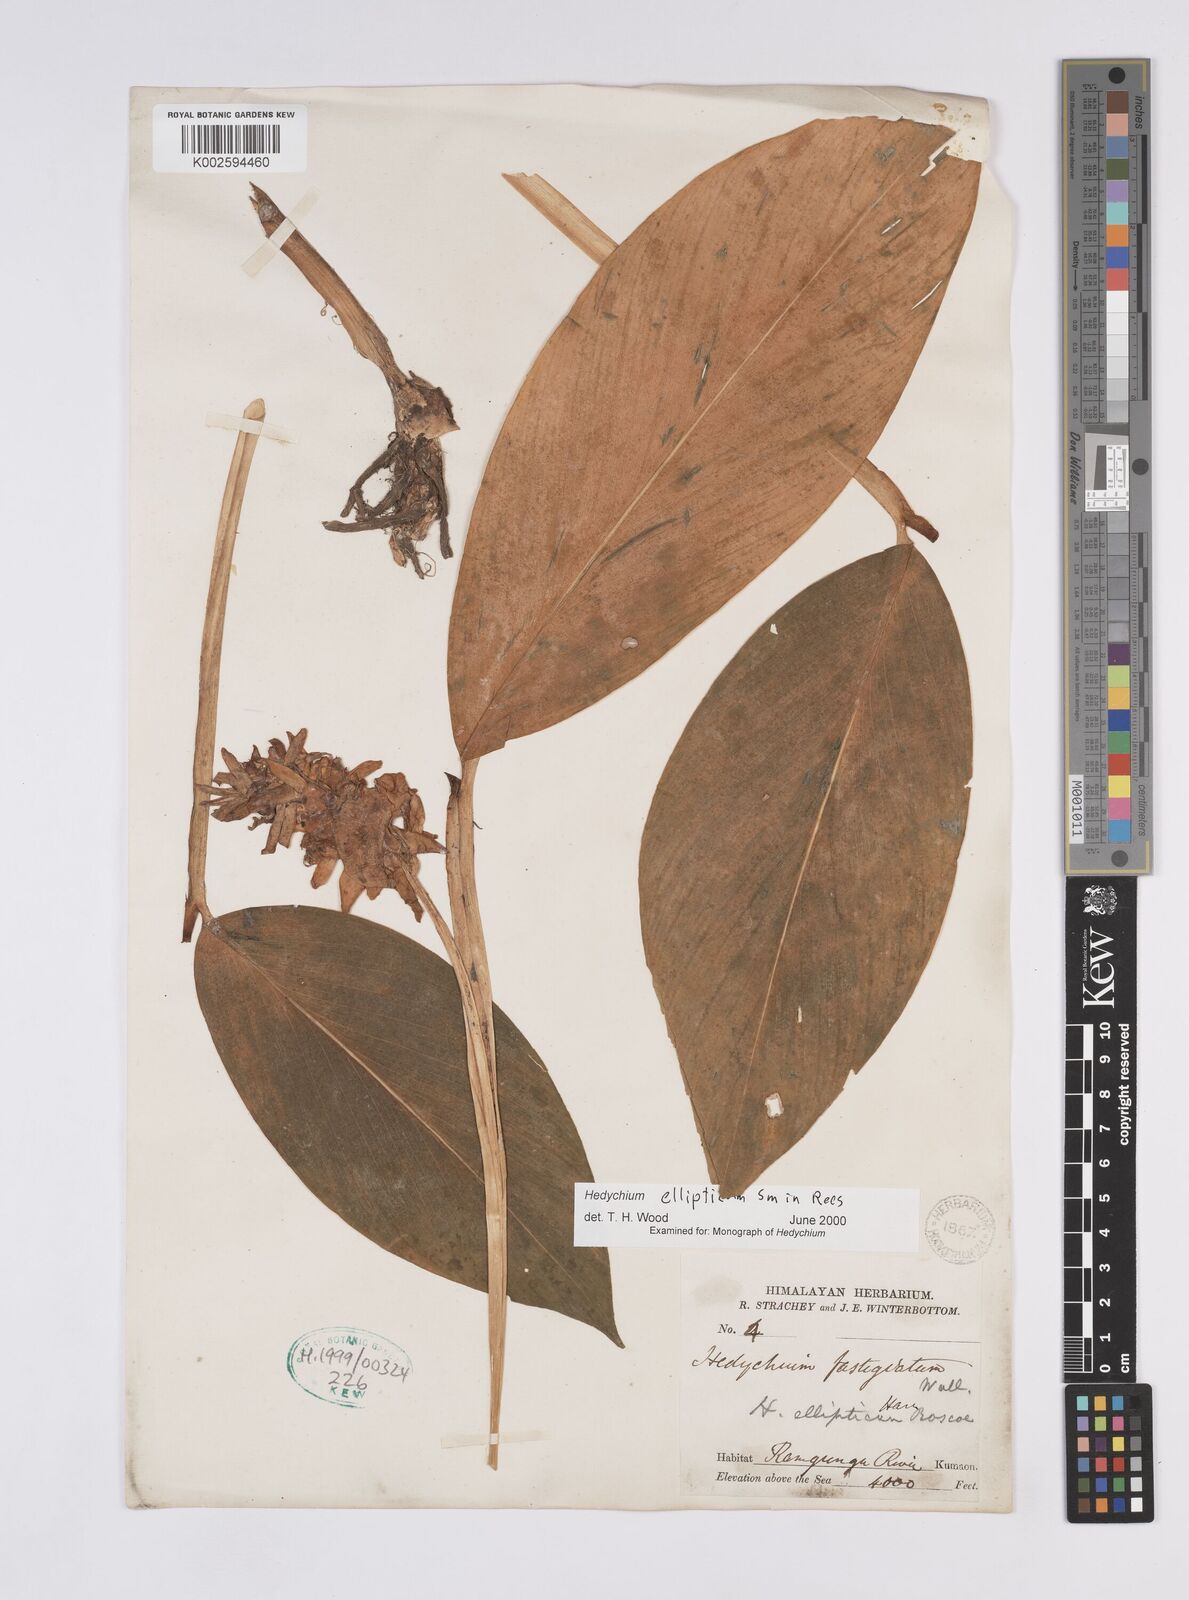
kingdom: Plantae
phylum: Tracheophyta
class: Liliopsida
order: Zingiberales
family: Zingiberaceae
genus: Hedychium
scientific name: Hedychium ellipticum
